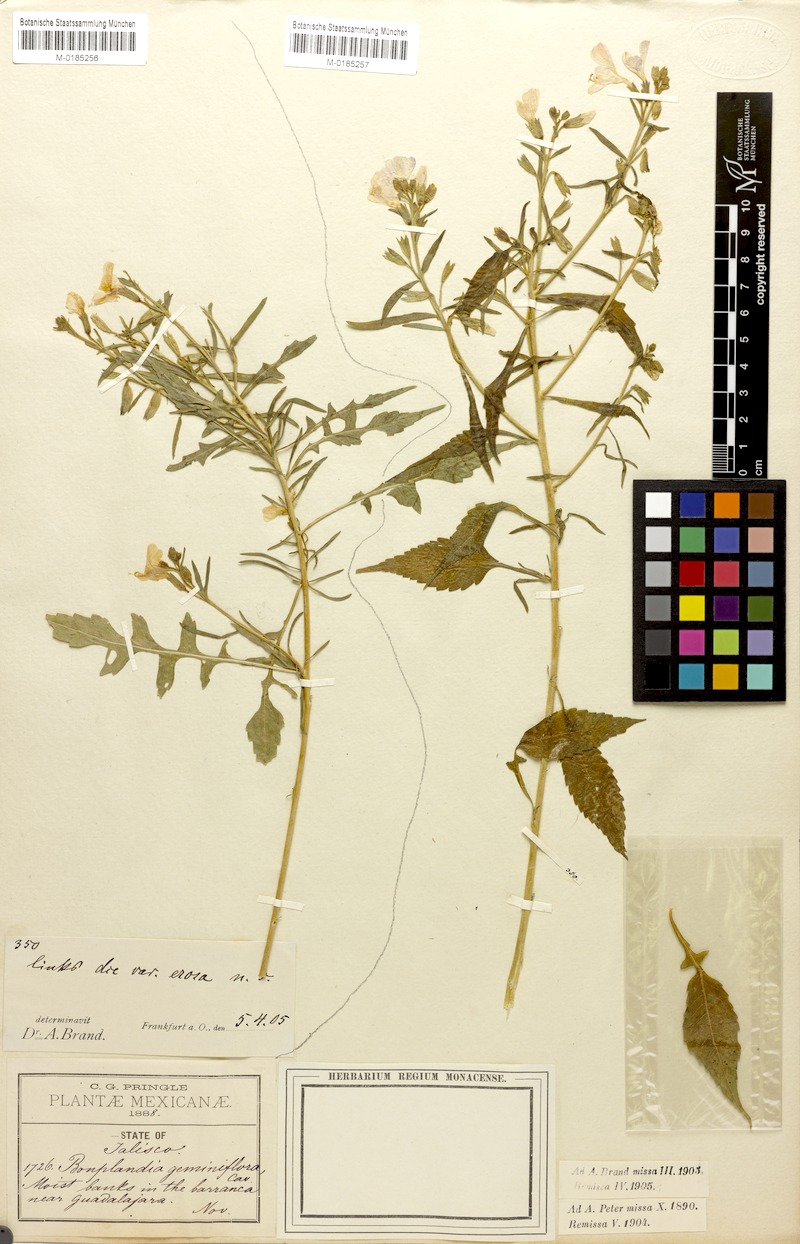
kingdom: Plantae
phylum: Tracheophyta
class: Magnoliopsida
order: Ericales
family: Polemoniaceae
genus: Bonplandia
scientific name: Bonplandia geminiflora
